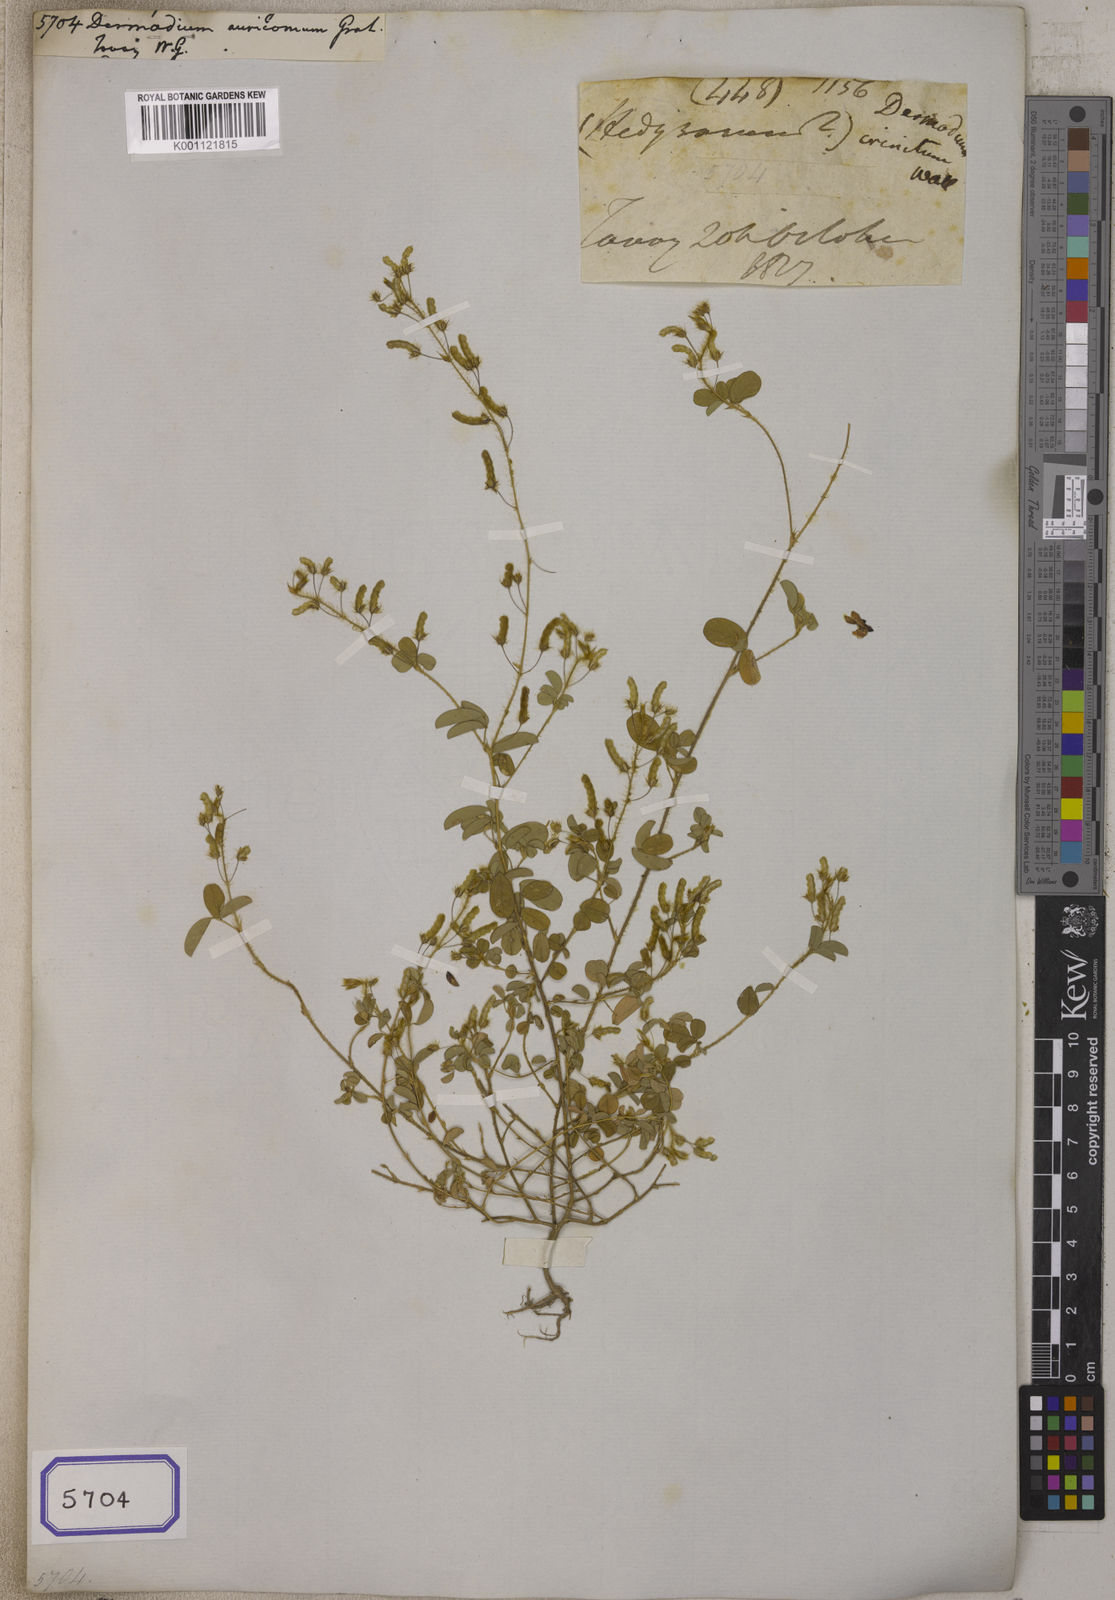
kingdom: Plantae
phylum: Tracheophyta
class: Magnoliopsida
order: Fabales
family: Fabaceae
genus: Desmodium
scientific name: Desmodium
